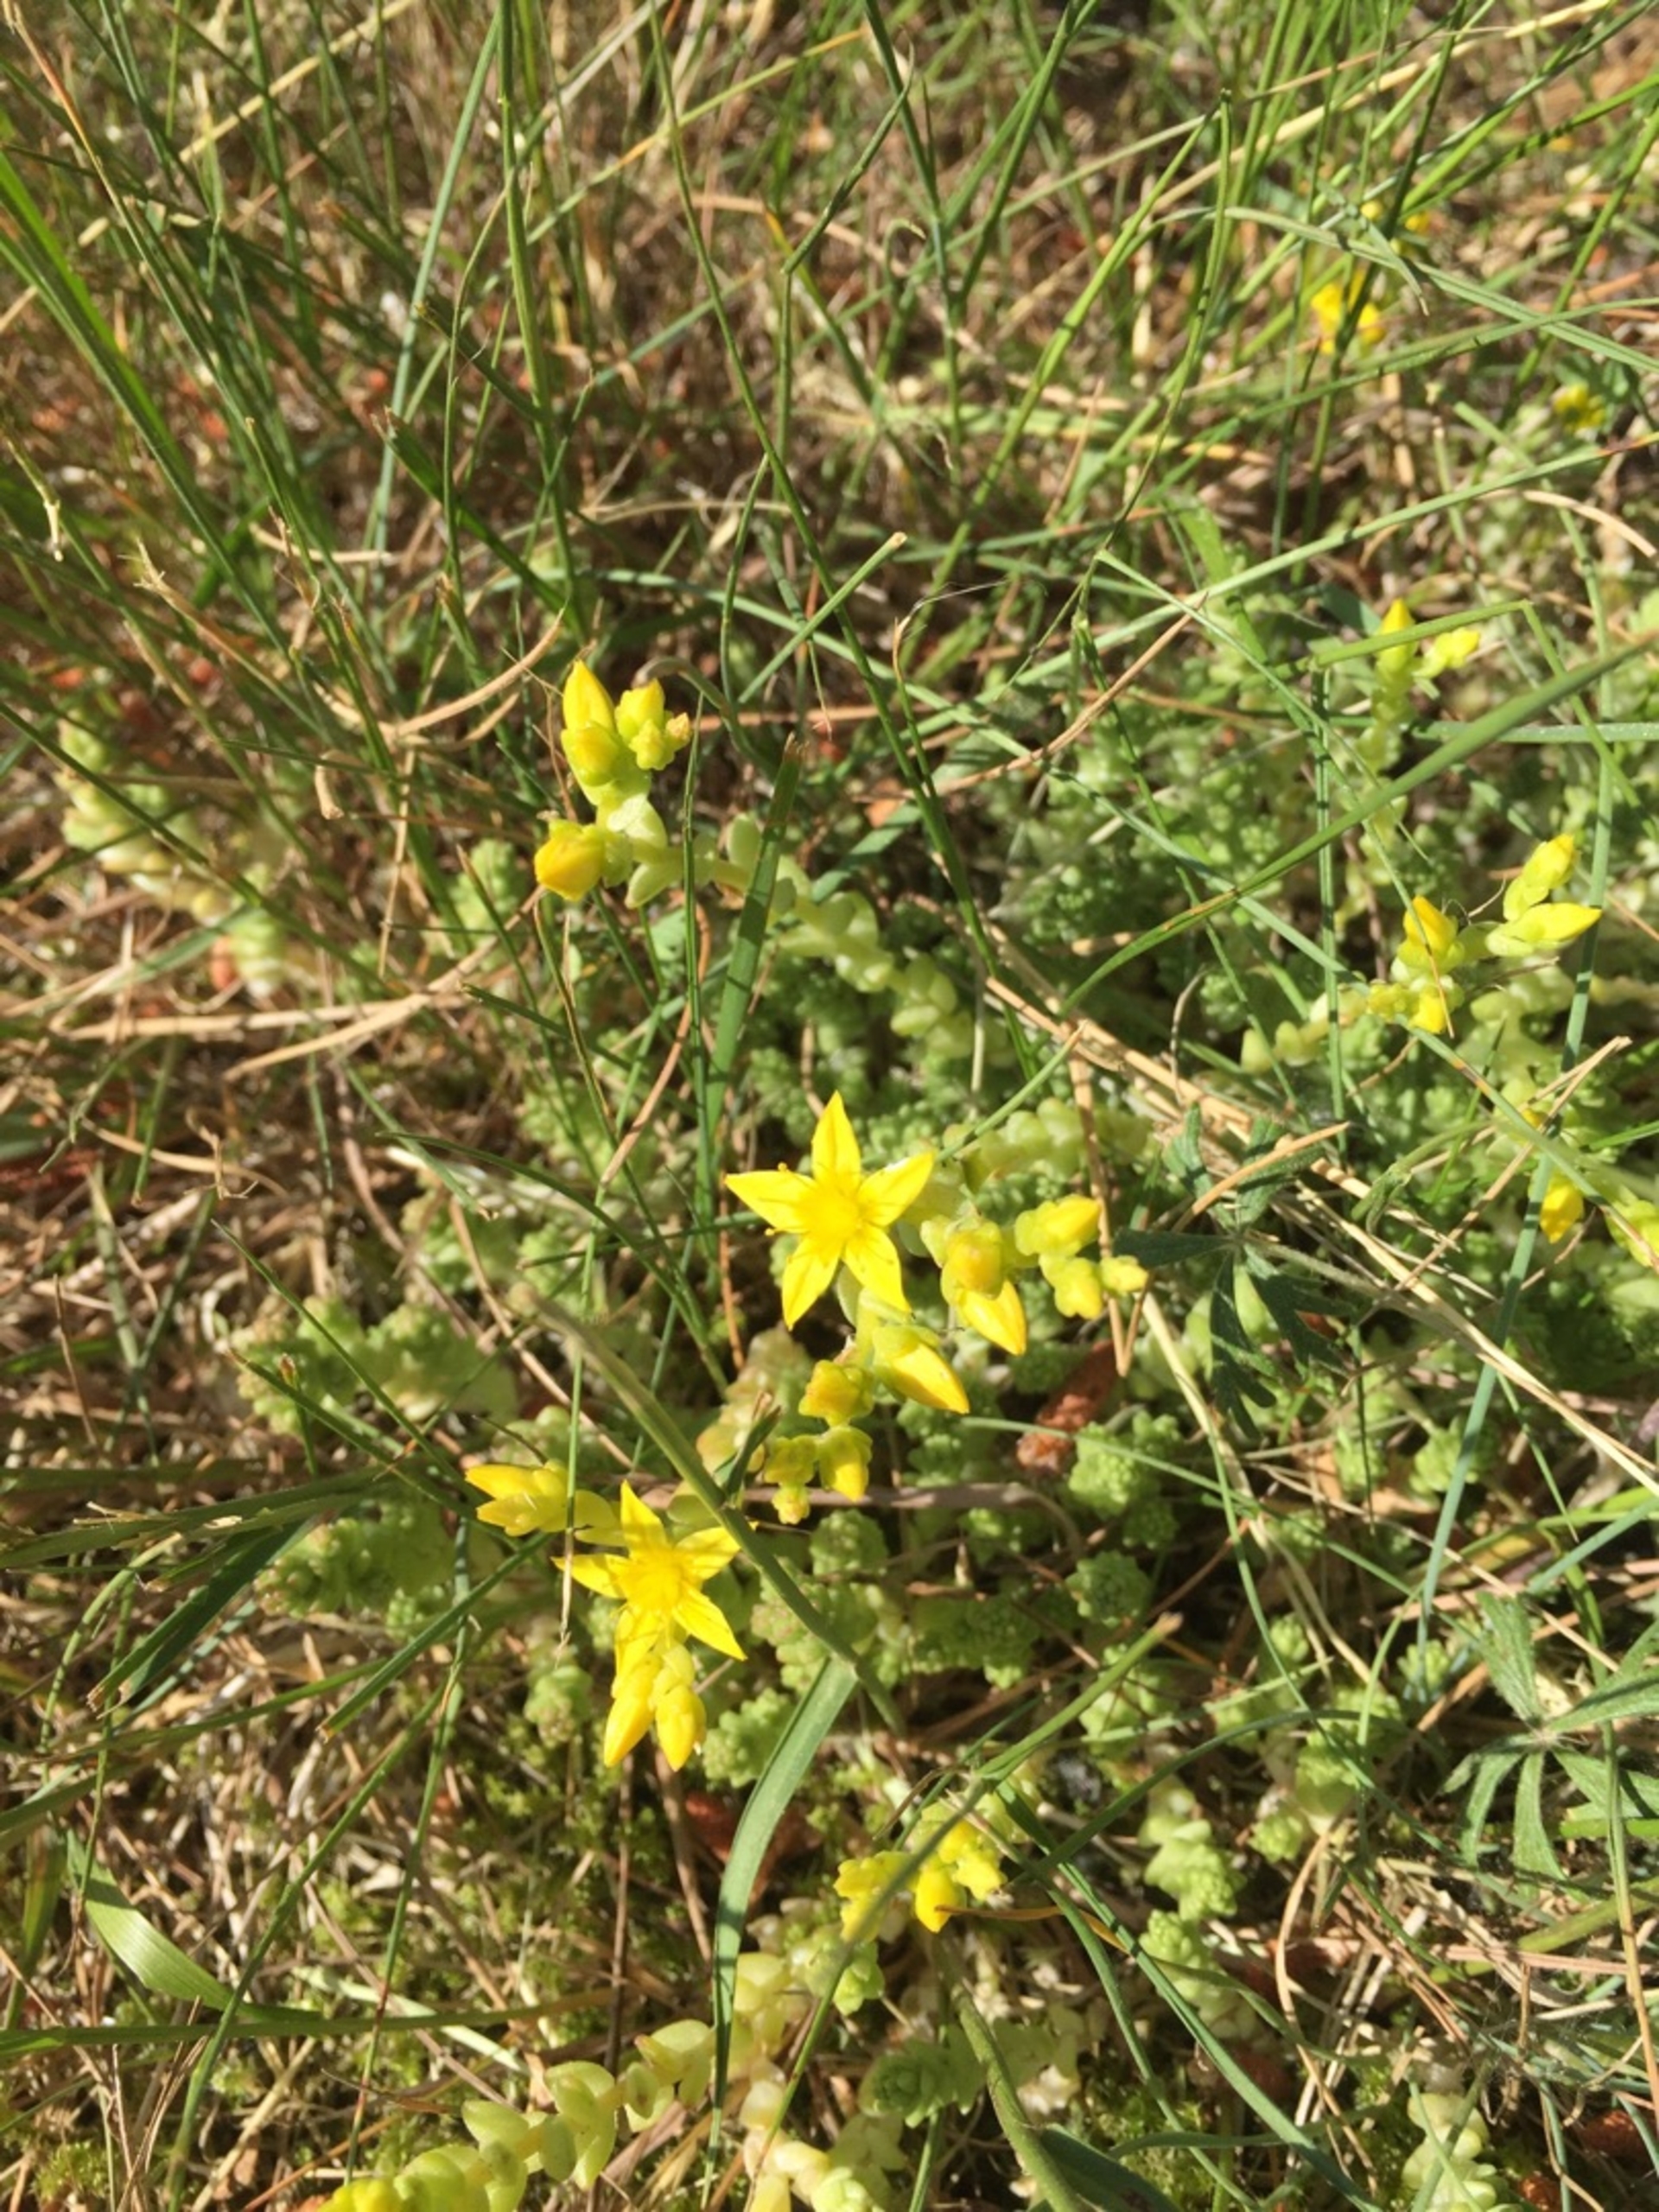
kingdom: Plantae
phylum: Tracheophyta
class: Magnoliopsida
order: Saxifragales
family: Crassulaceae
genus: Sedum
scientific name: Sedum acre
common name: Bidende stenurt
